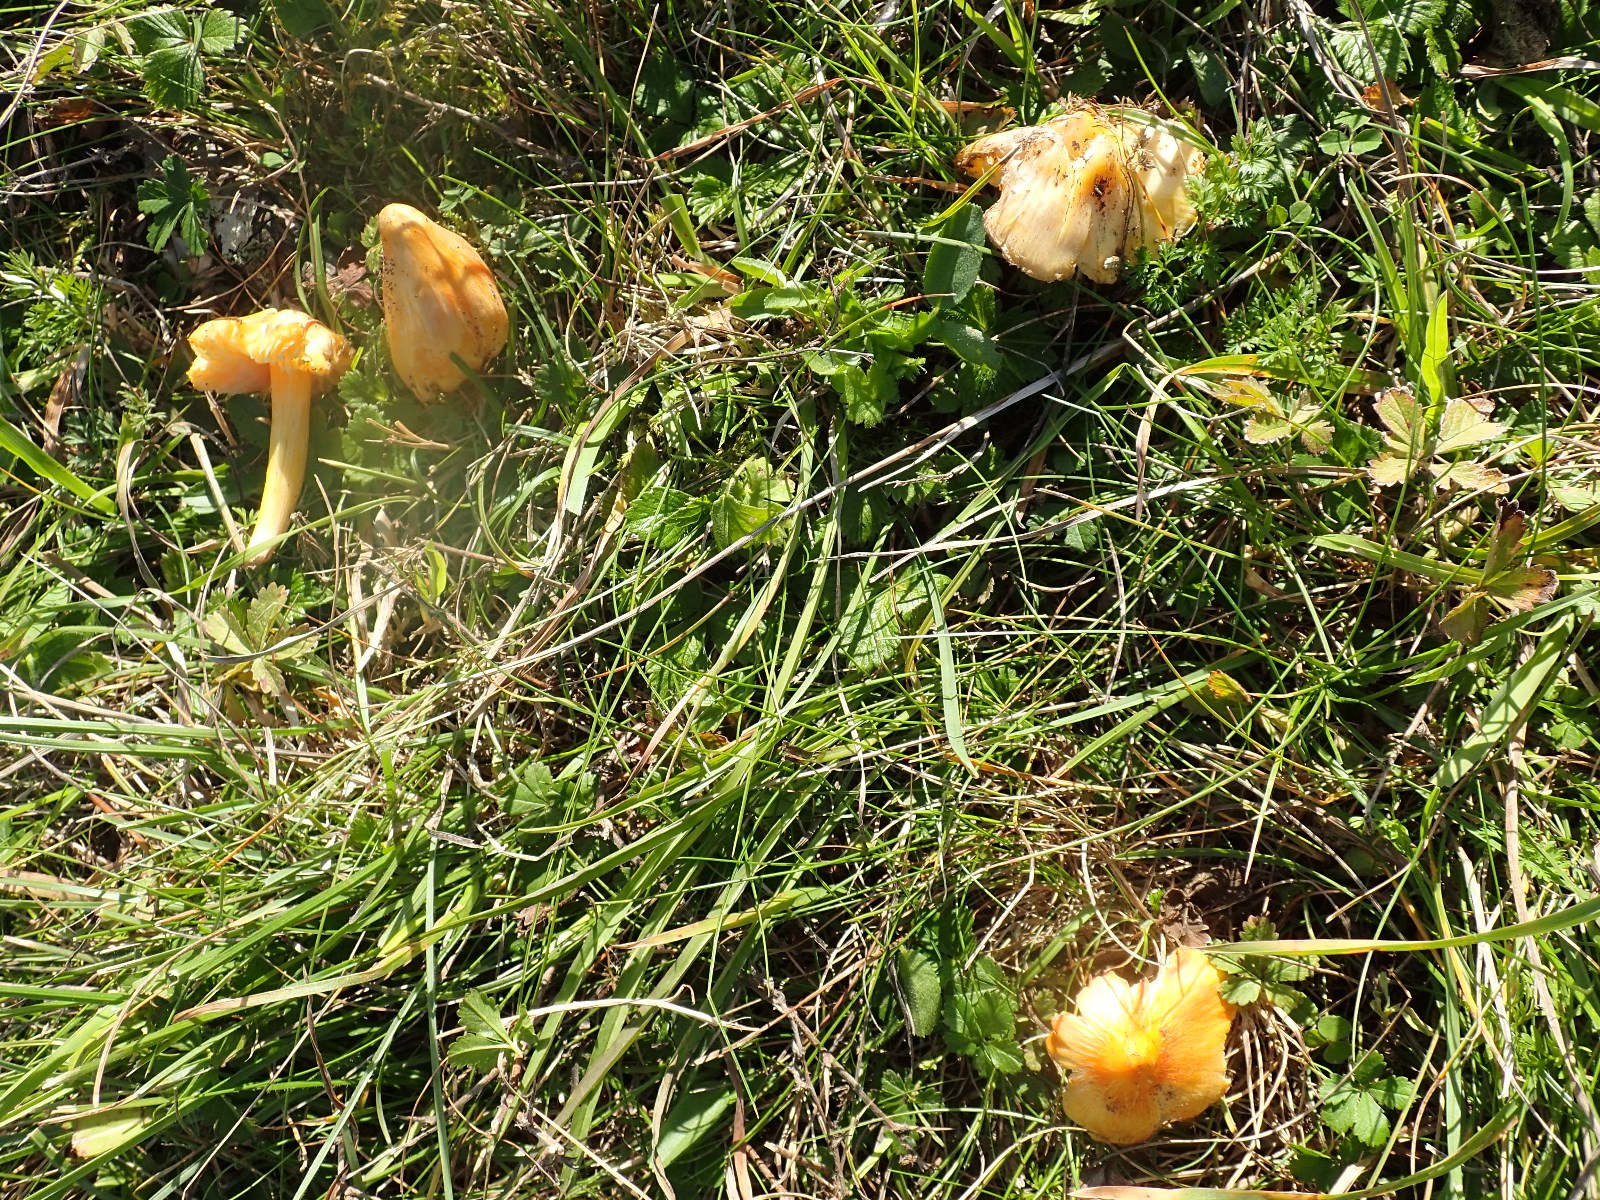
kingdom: Fungi
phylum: Basidiomycota
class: Agaricomycetes
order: Agaricales
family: Hygrophoraceae
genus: Hygrocybe
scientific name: Hygrocybe acutoconica
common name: spidspuklet vokshat
